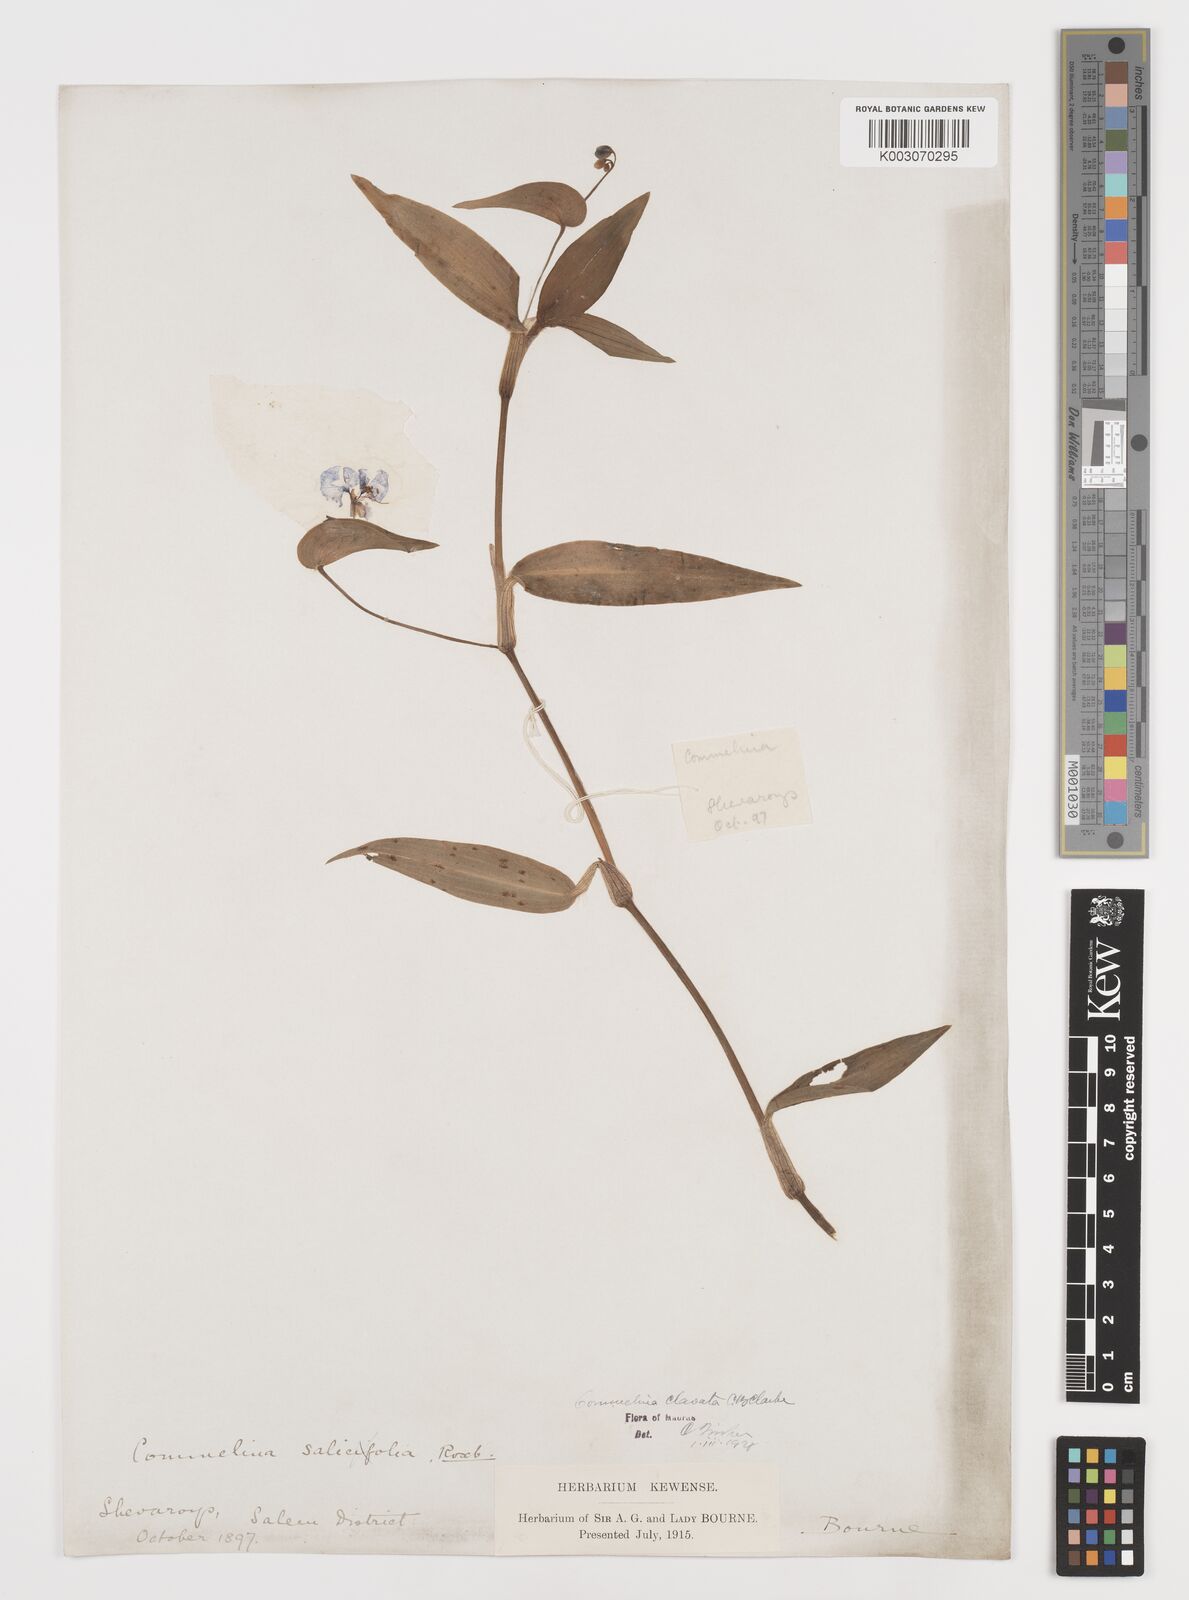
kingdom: Plantae
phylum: Tracheophyta
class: Liliopsida
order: Commelinales
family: Commelinaceae
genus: Commelina
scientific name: Commelina clavata
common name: Willow leaved dayflower
